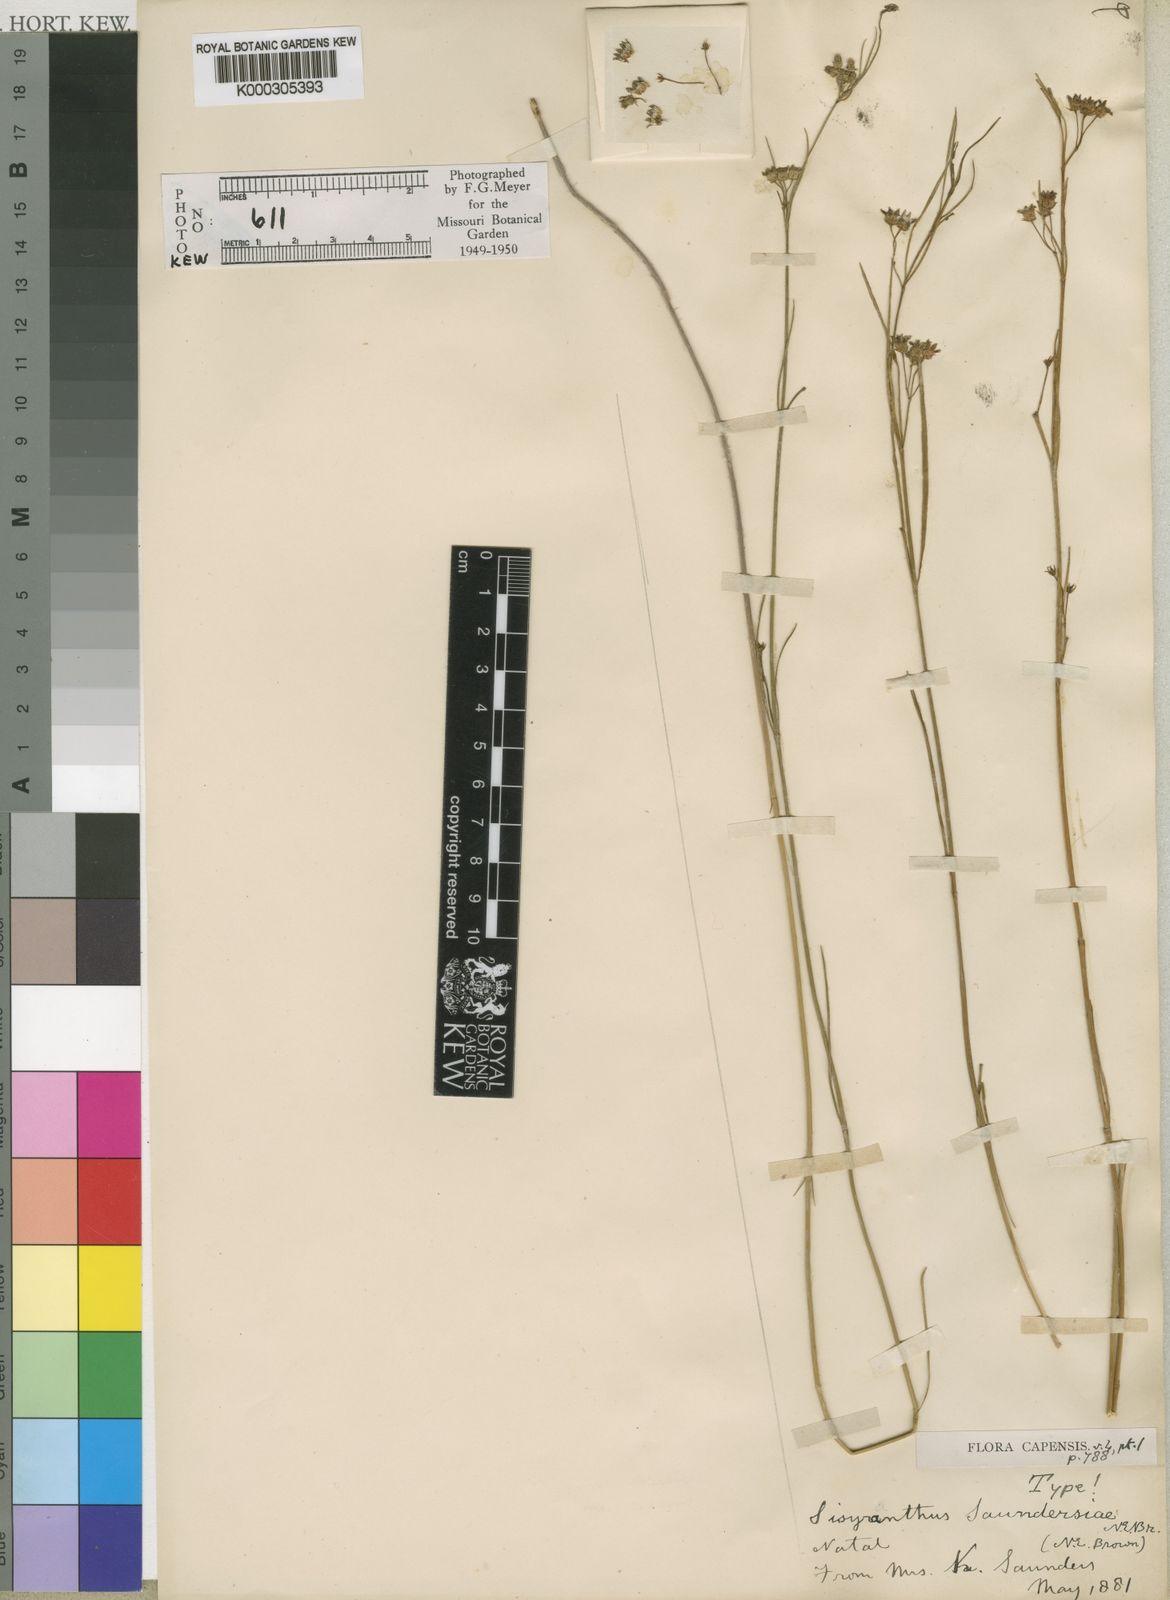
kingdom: Plantae
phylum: Tracheophyta
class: Magnoliopsida
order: Gentianales
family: Apocynaceae
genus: Sisyranthus
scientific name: Sisyranthus saundersiae
